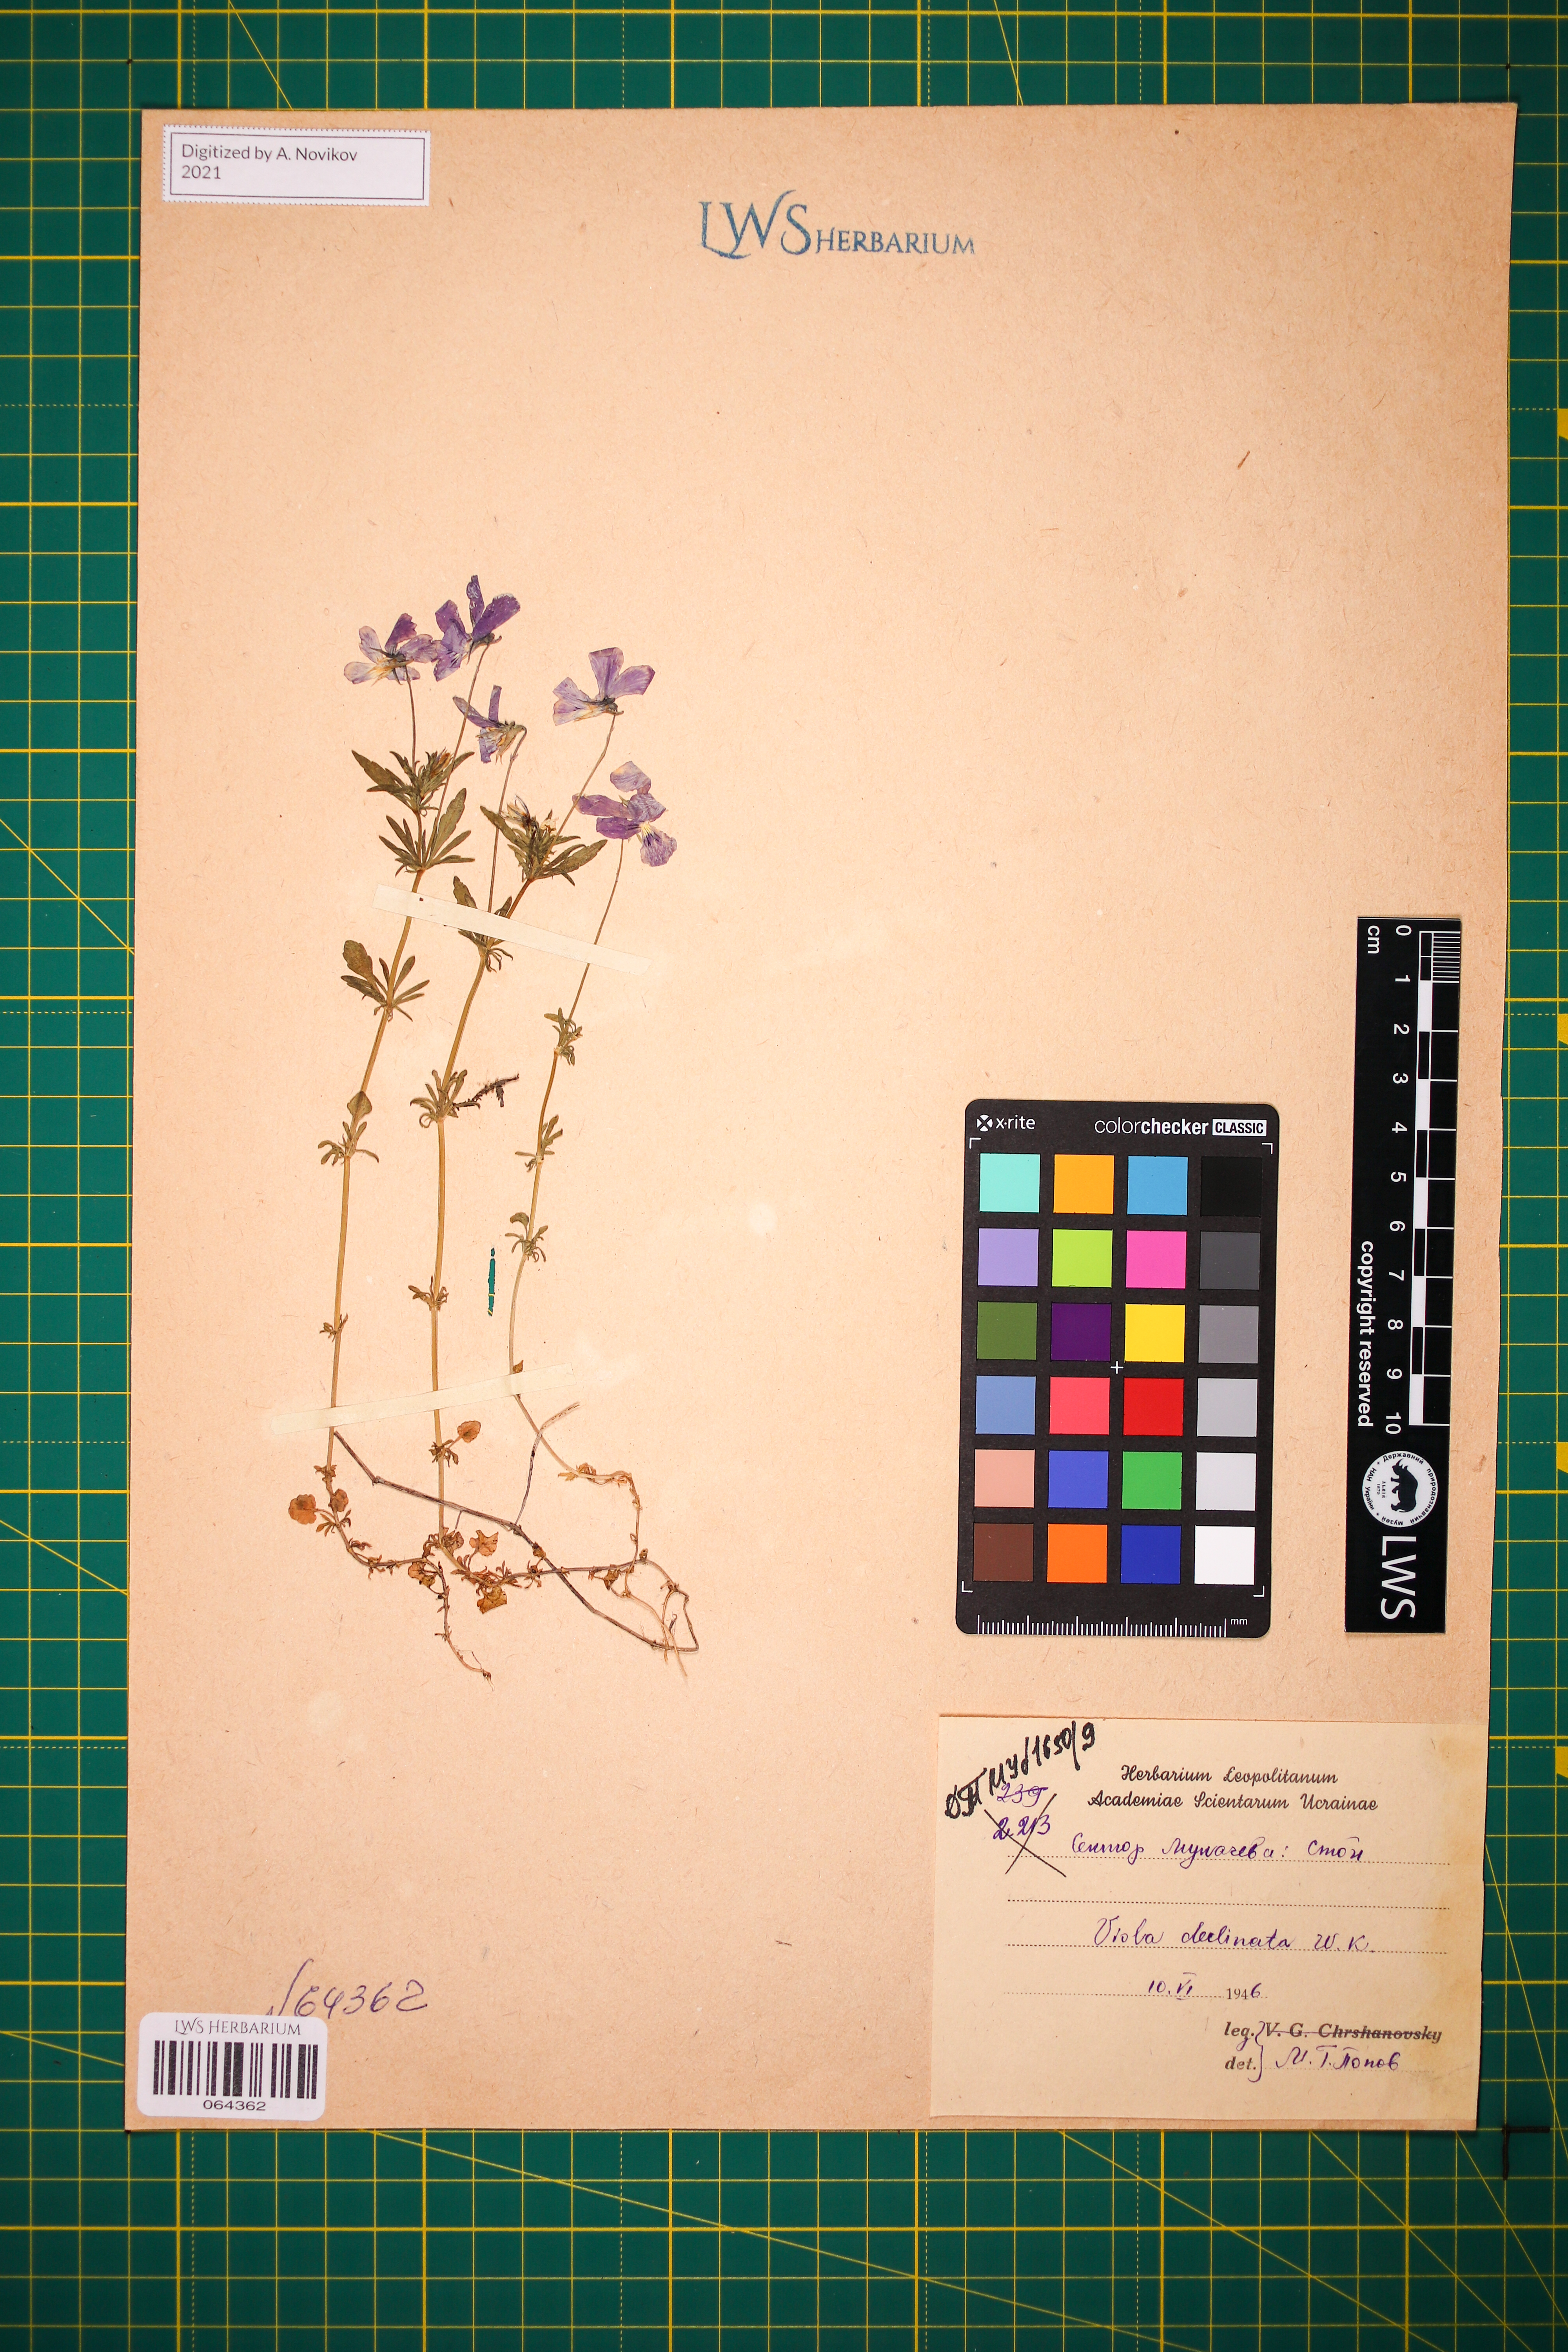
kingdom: Plantae
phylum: Tracheophyta
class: Magnoliopsida
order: Malpighiales
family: Violaceae
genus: Viola
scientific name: Viola declinata
